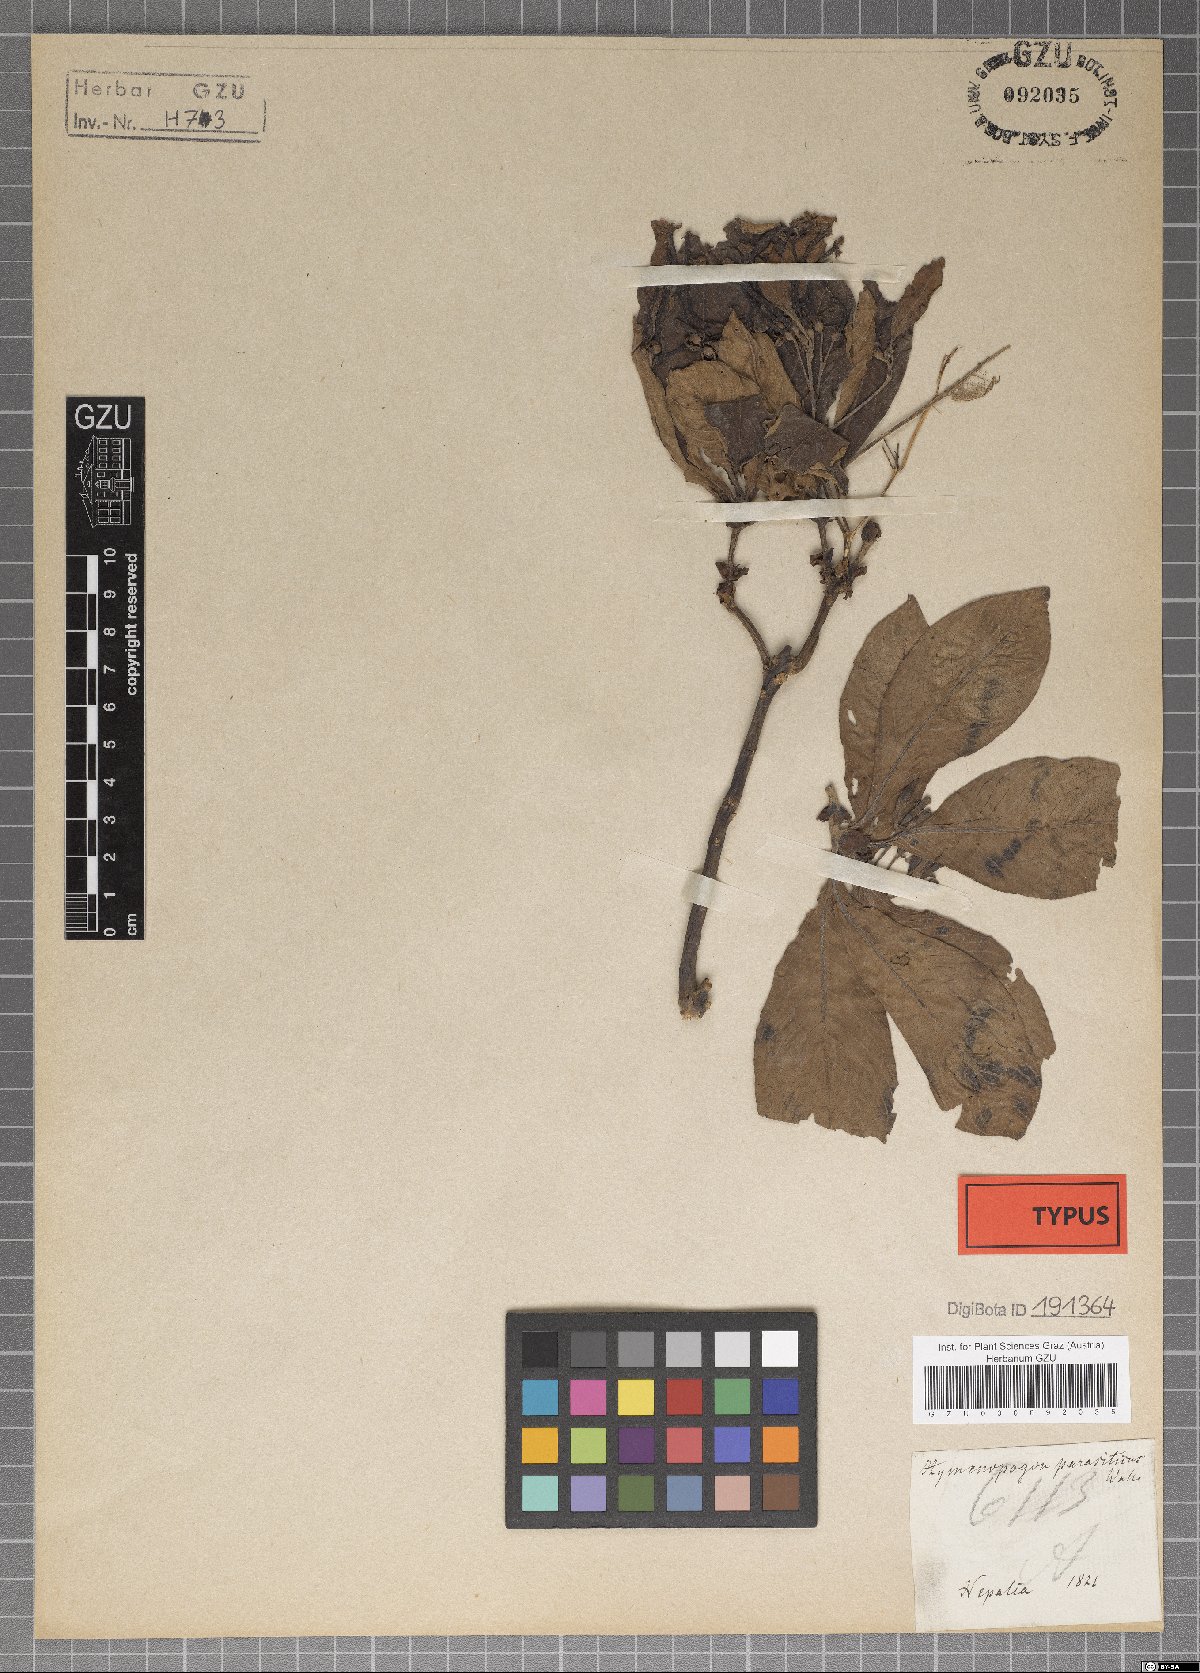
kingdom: Plantae
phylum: Tracheophyta
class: Magnoliopsida
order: Gentianales
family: Rubiaceae
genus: Neohymenopogon
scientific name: Neohymenopogon parasiticus
